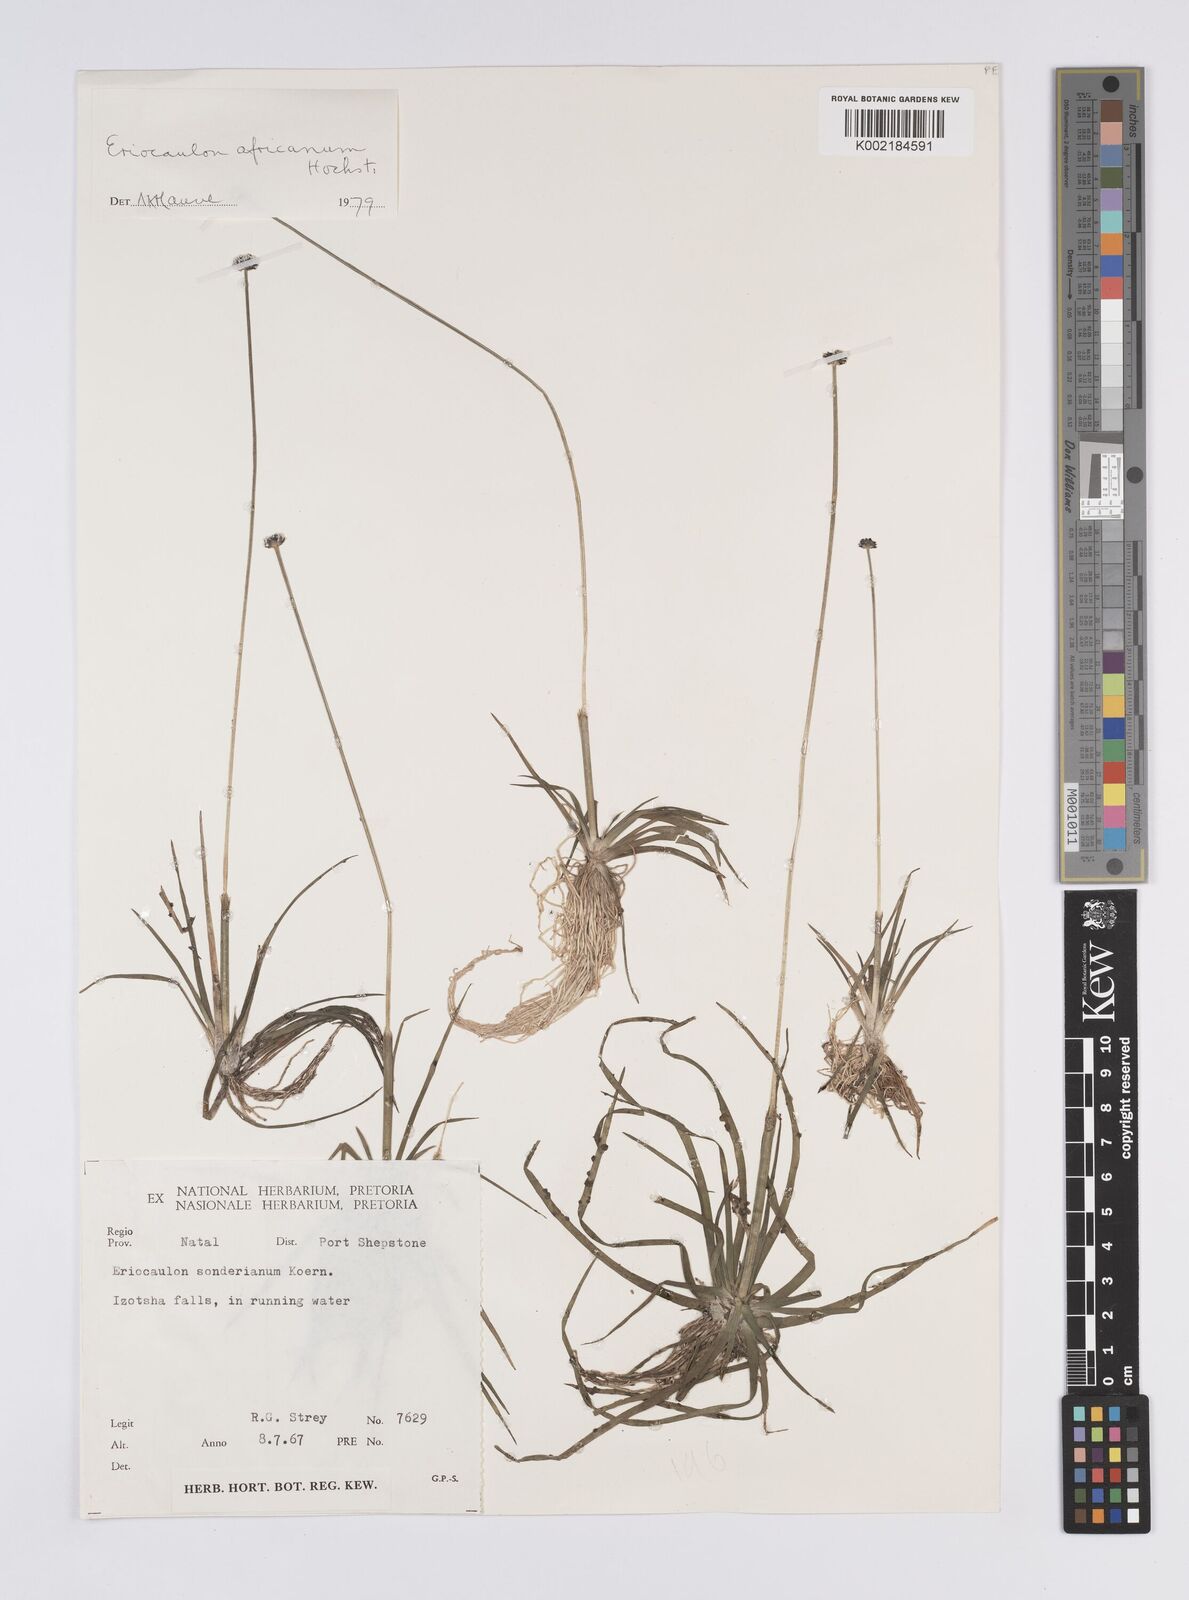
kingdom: Plantae
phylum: Tracheophyta
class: Liliopsida
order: Poales
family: Eriocaulaceae
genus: Eriocaulon
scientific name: Eriocaulon africanum
